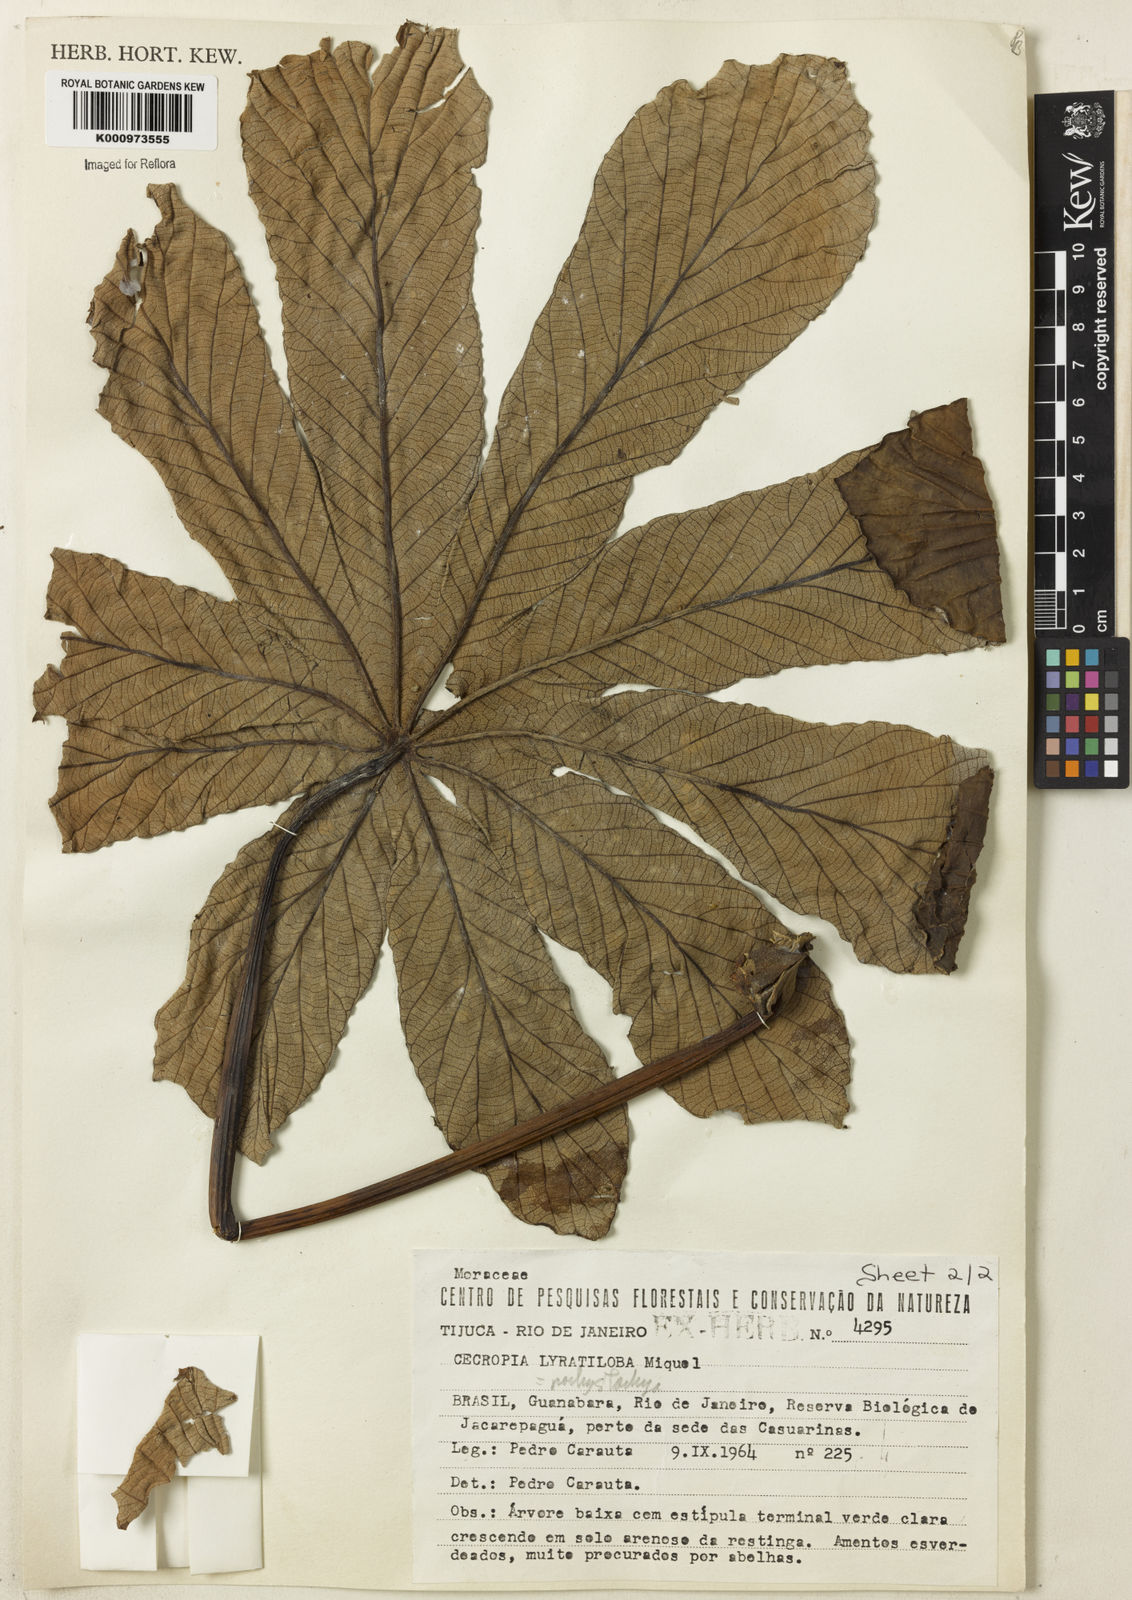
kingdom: Plantae
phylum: Tracheophyta
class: Magnoliopsida
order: Rosales
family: Urticaceae
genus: Cecropia
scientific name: Cecropia
